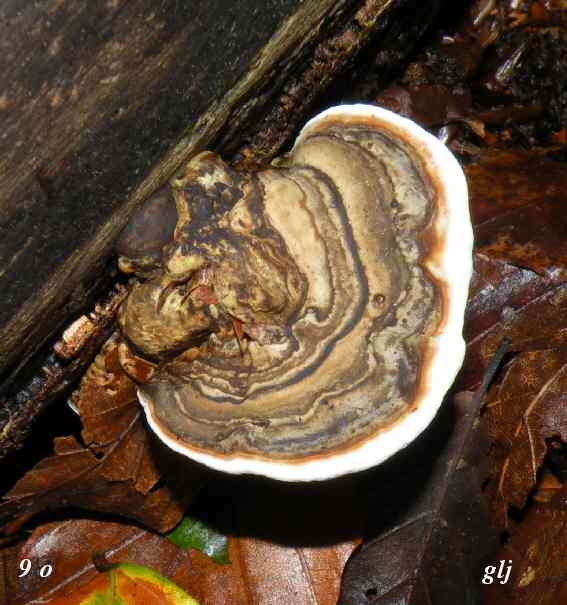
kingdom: Fungi
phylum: Basidiomycota
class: Agaricomycetes
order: Polyporales
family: Polyporaceae
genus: Ganoderma
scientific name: Ganoderma applanatum
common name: flad lakporesvamp
